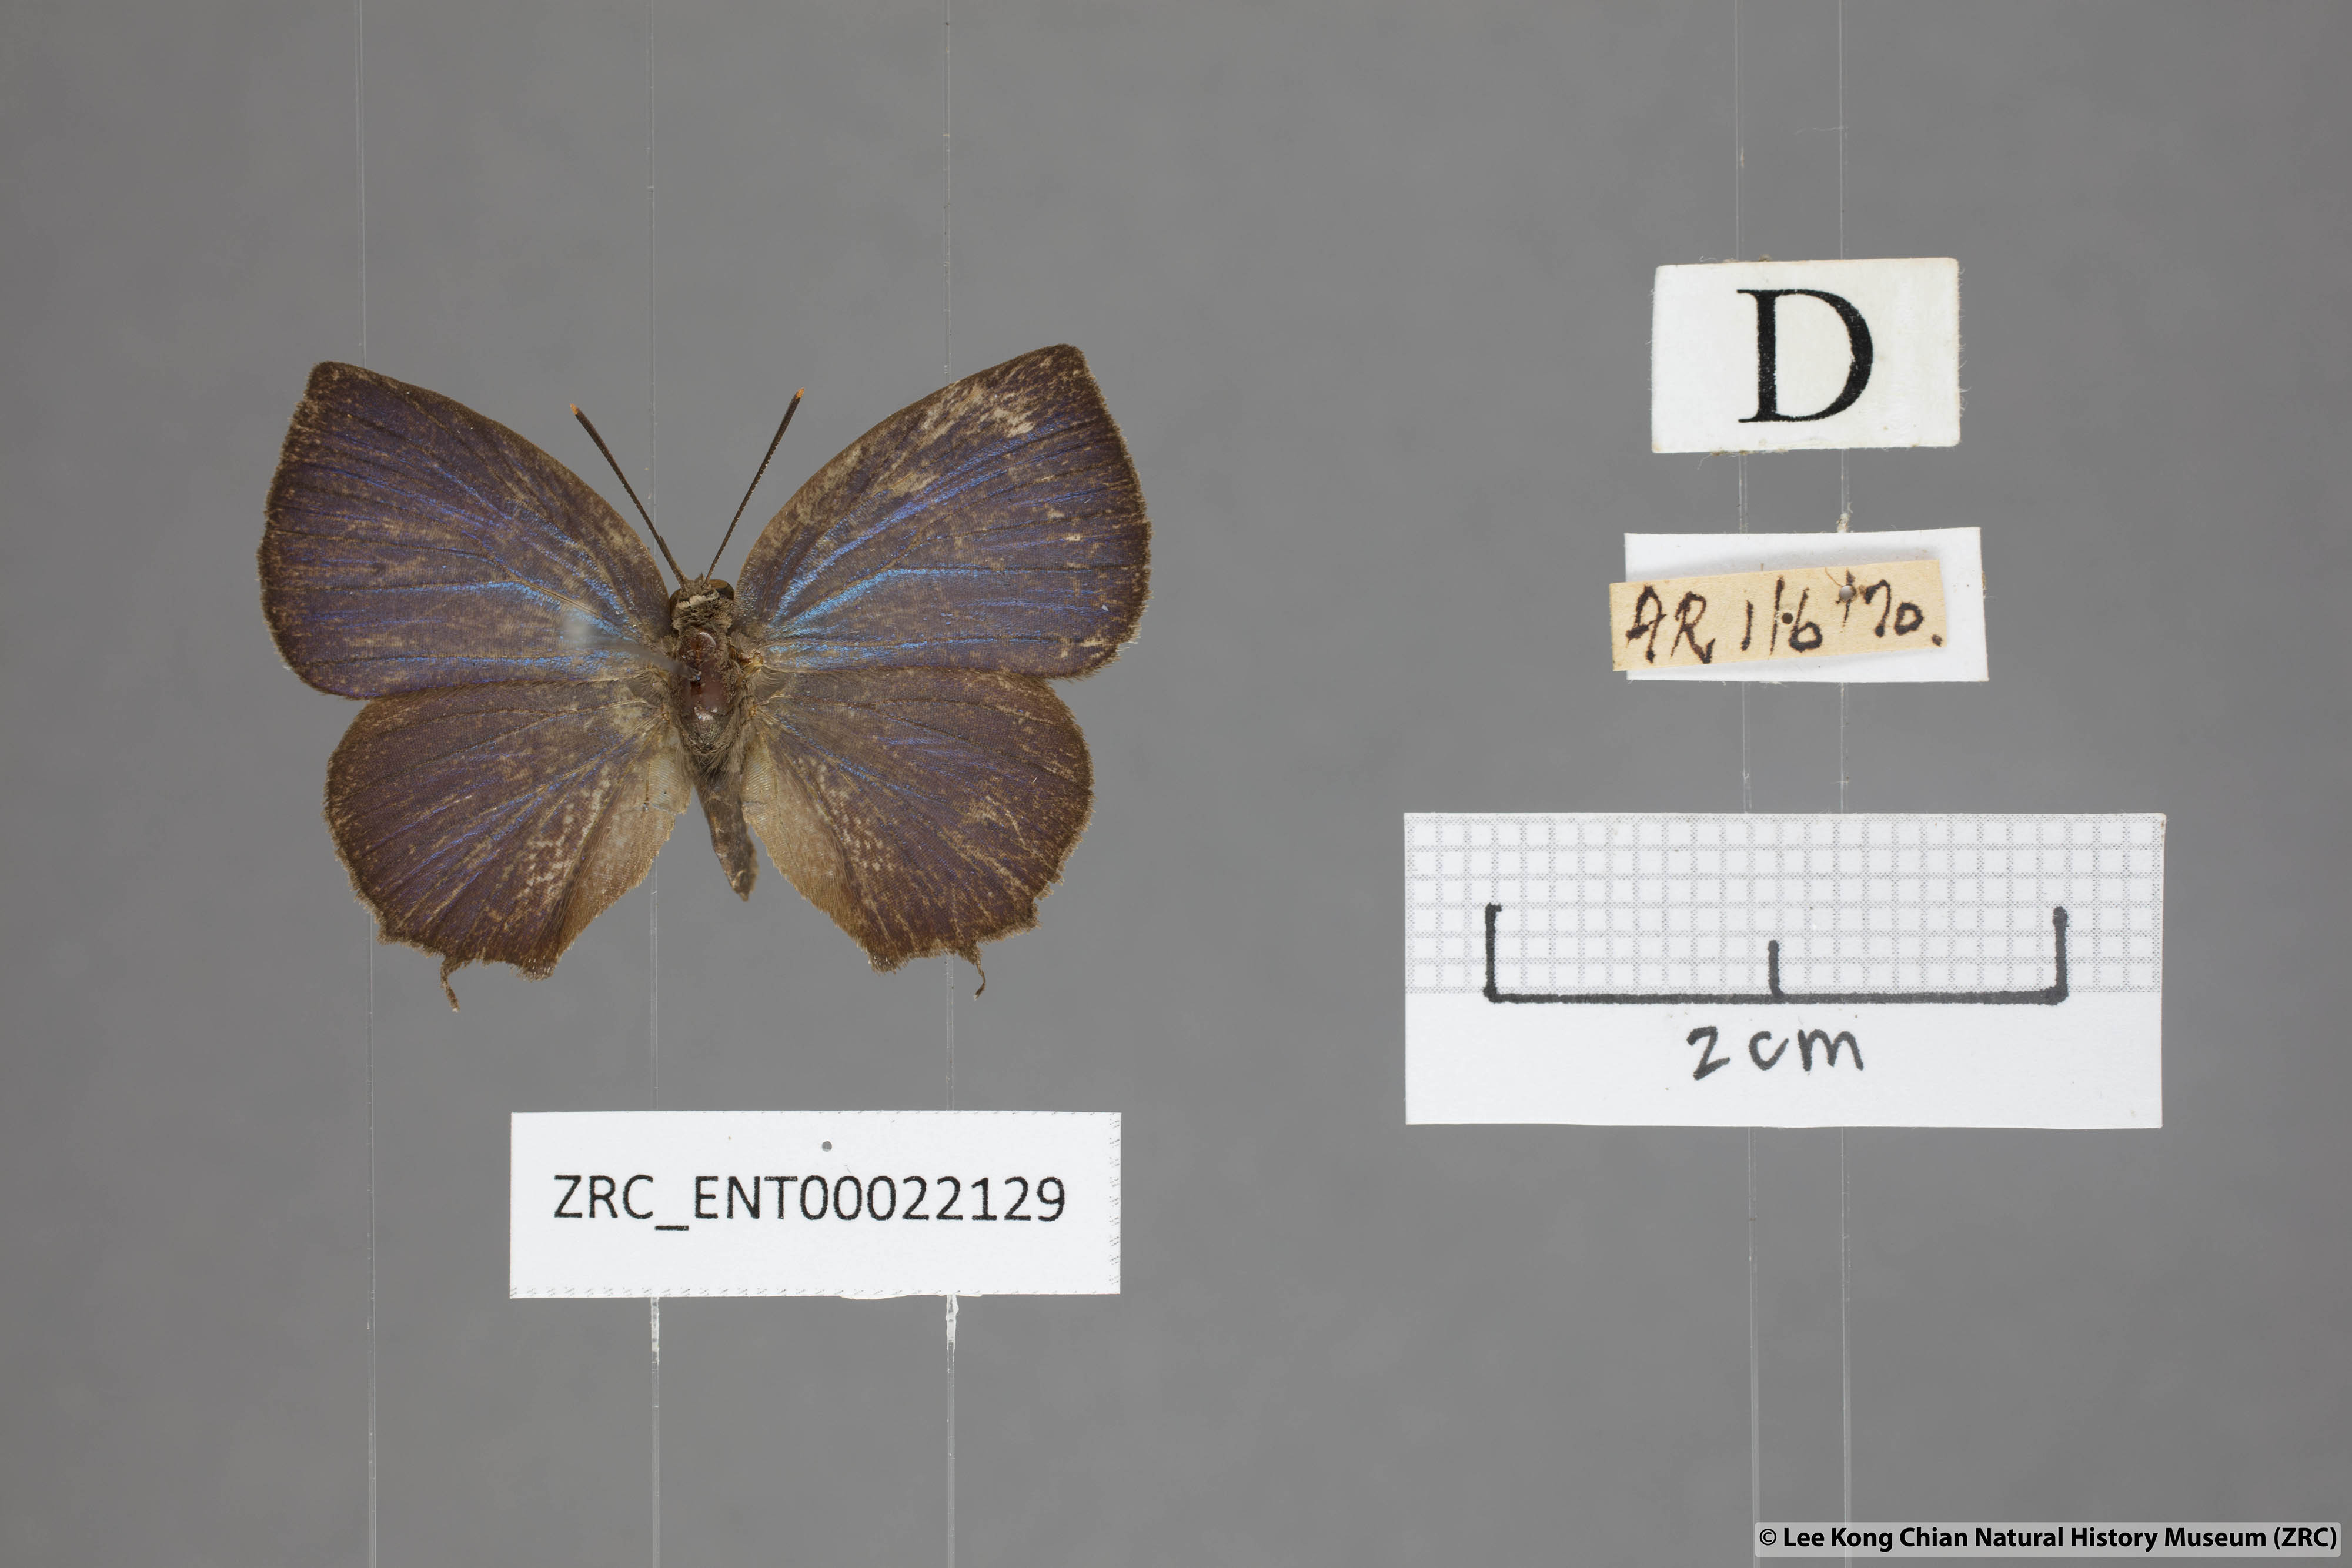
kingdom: Animalia
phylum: Arthropoda
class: Insecta
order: Lepidoptera
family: Lycaenidae
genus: Surendra
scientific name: Surendra vivarna
